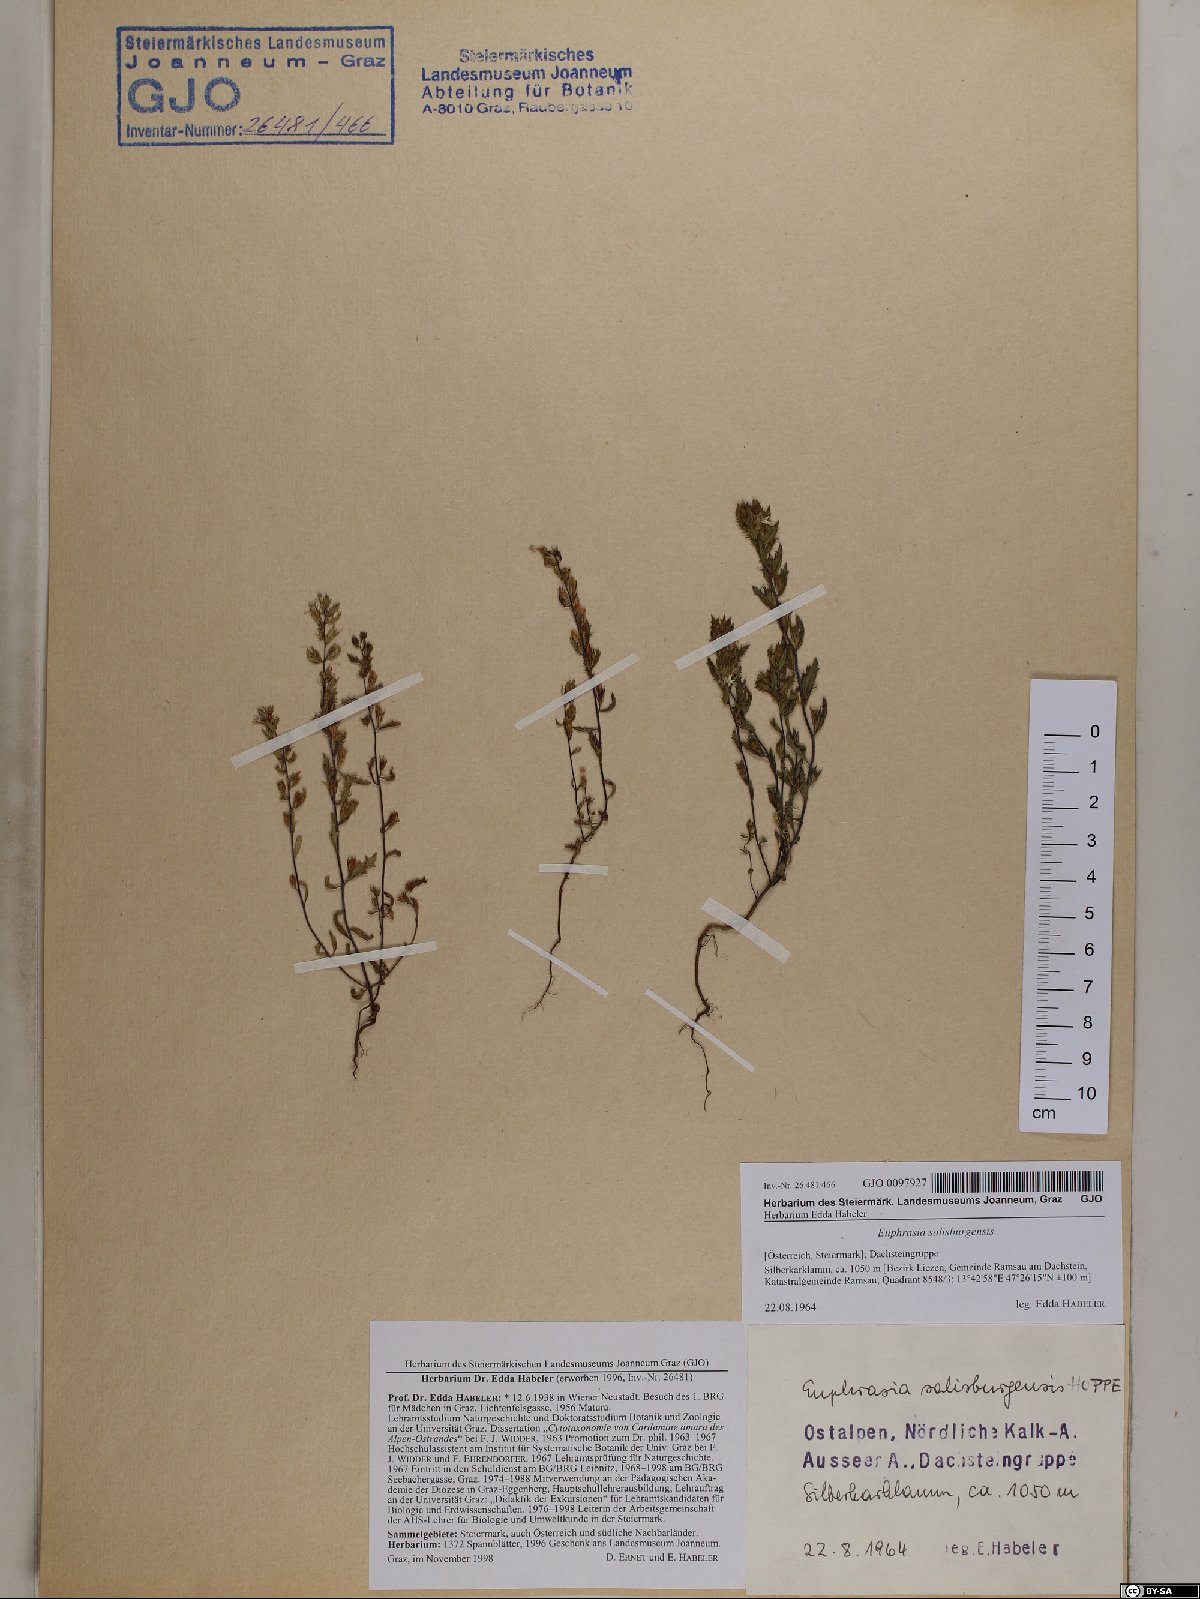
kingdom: Plantae
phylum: Tracheophyta
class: Magnoliopsida
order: Lamiales
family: Orobanchaceae
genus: Euphrasia
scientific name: Euphrasia salisburgensis
